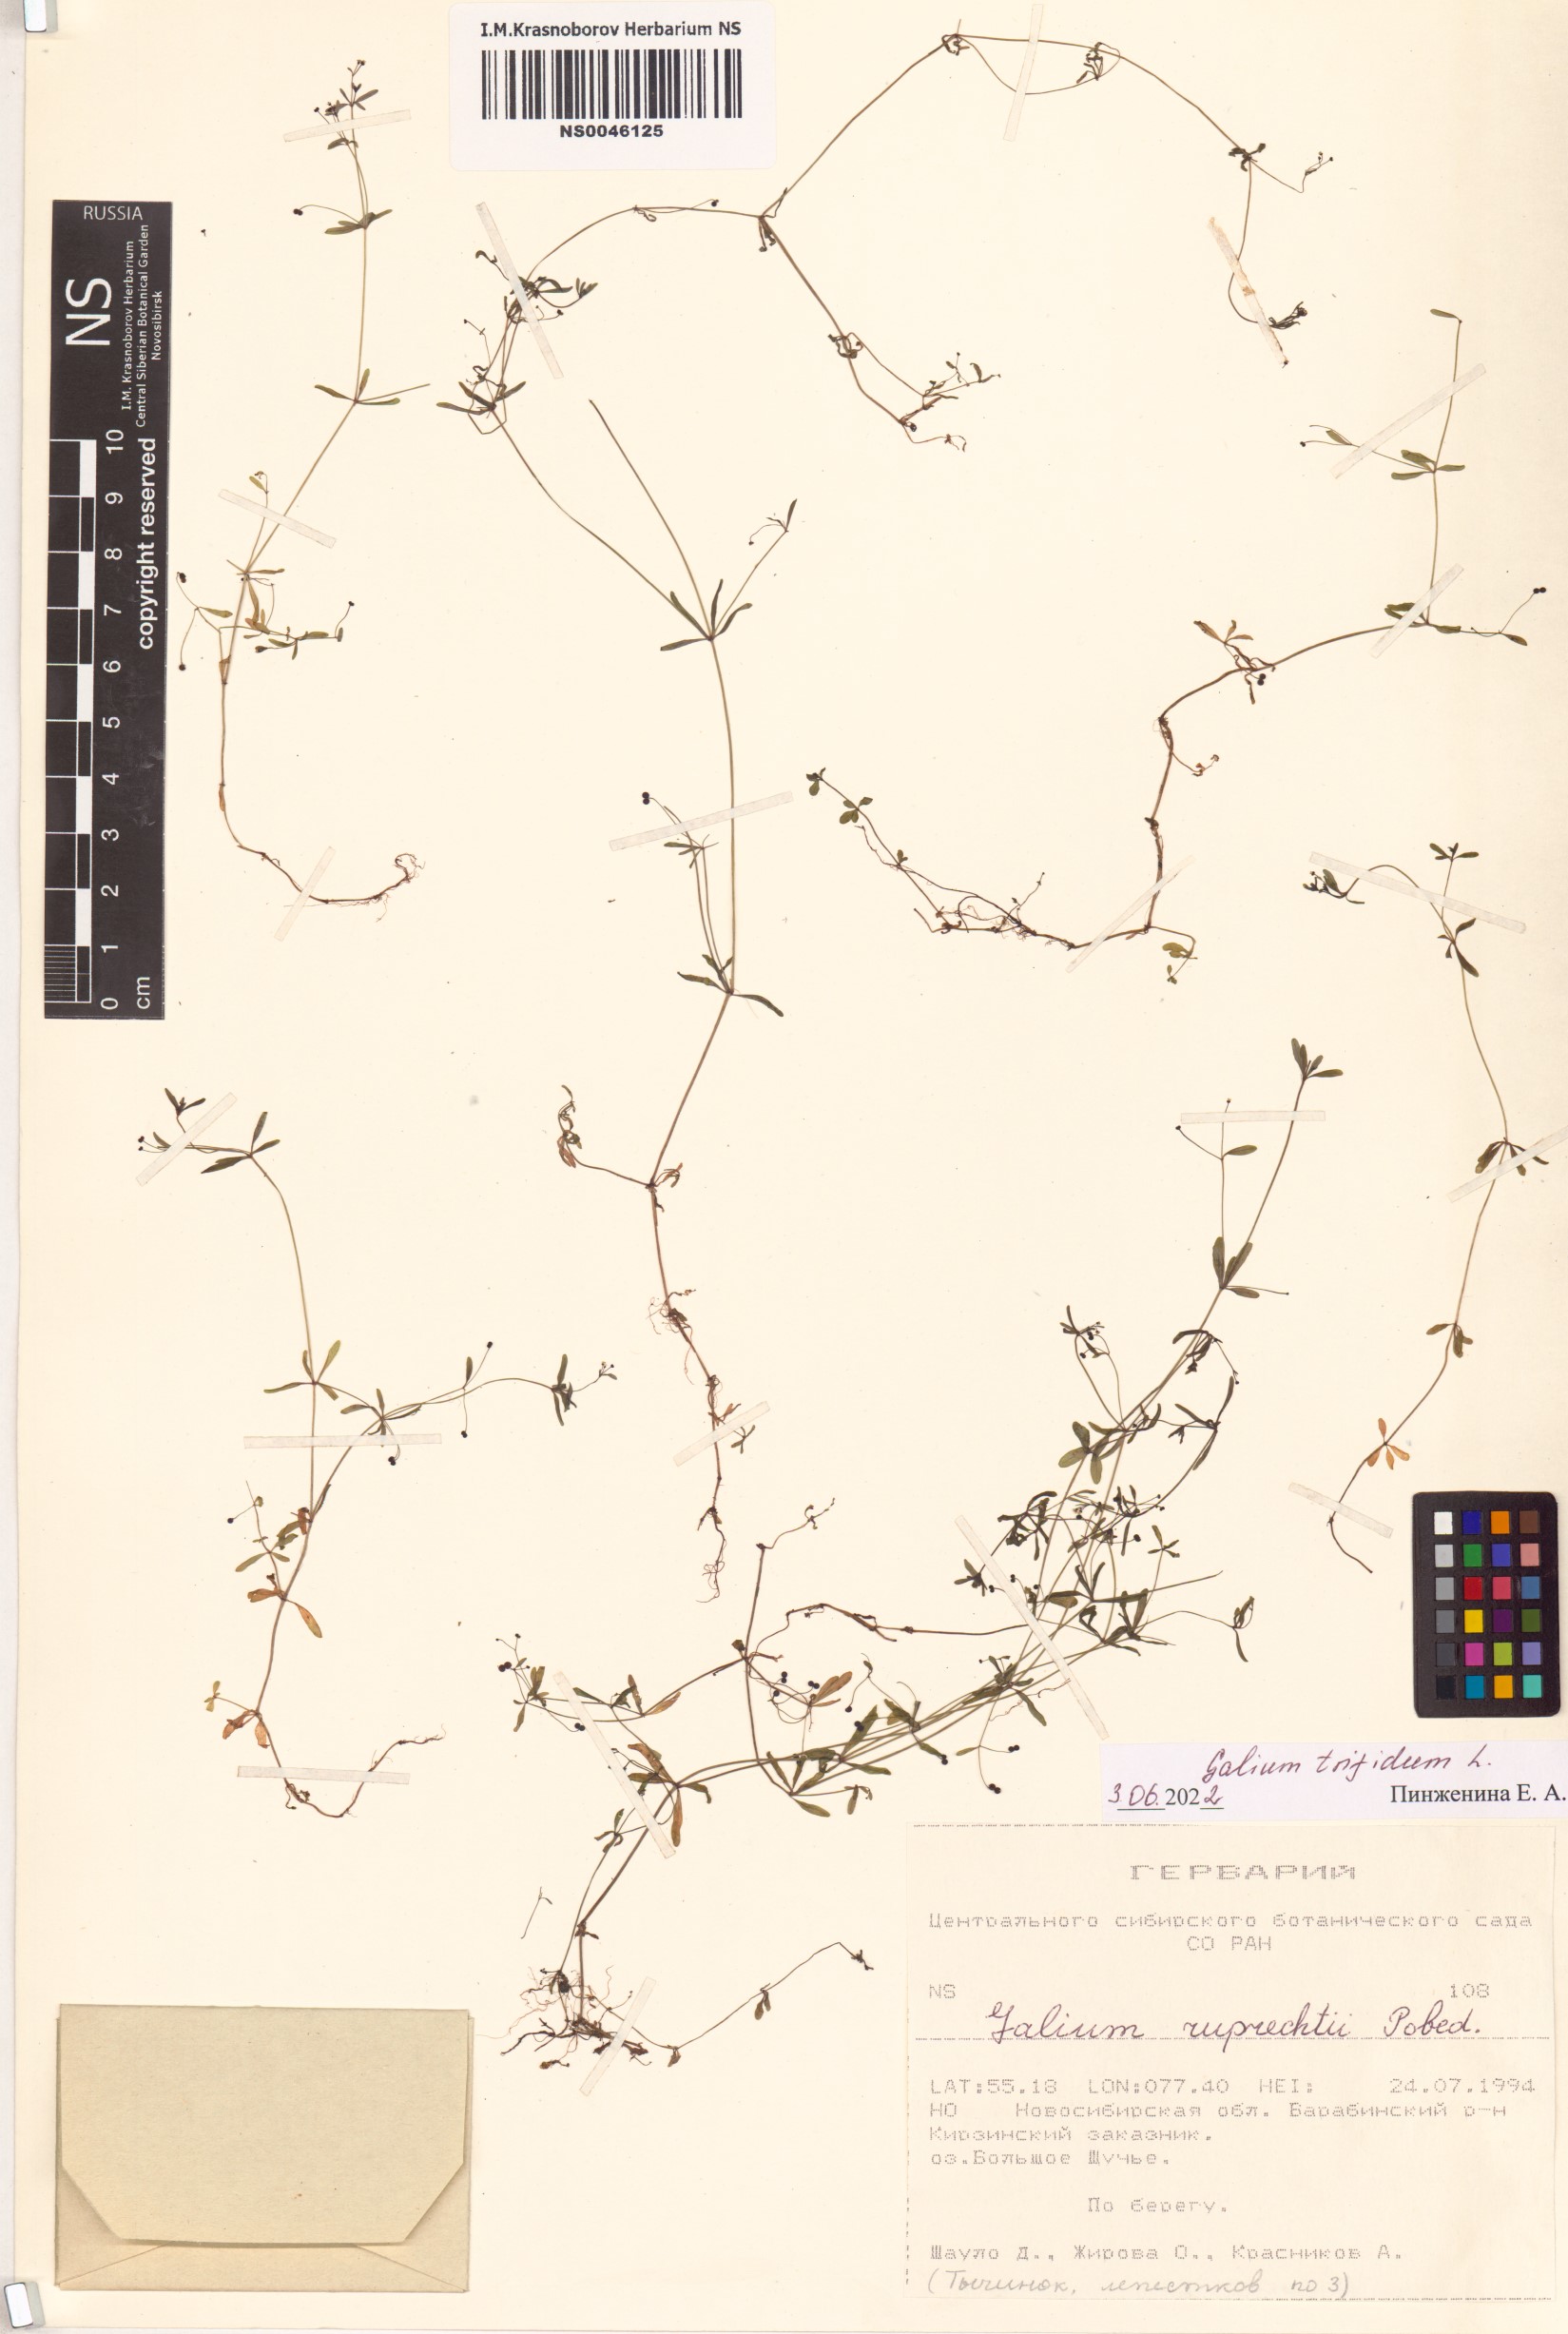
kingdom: Plantae
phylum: Tracheophyta
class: Magnoliopsida
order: Gentianales
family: Rubiaceae
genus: Galium
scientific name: Galium trifidum
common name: Small bedstraw
